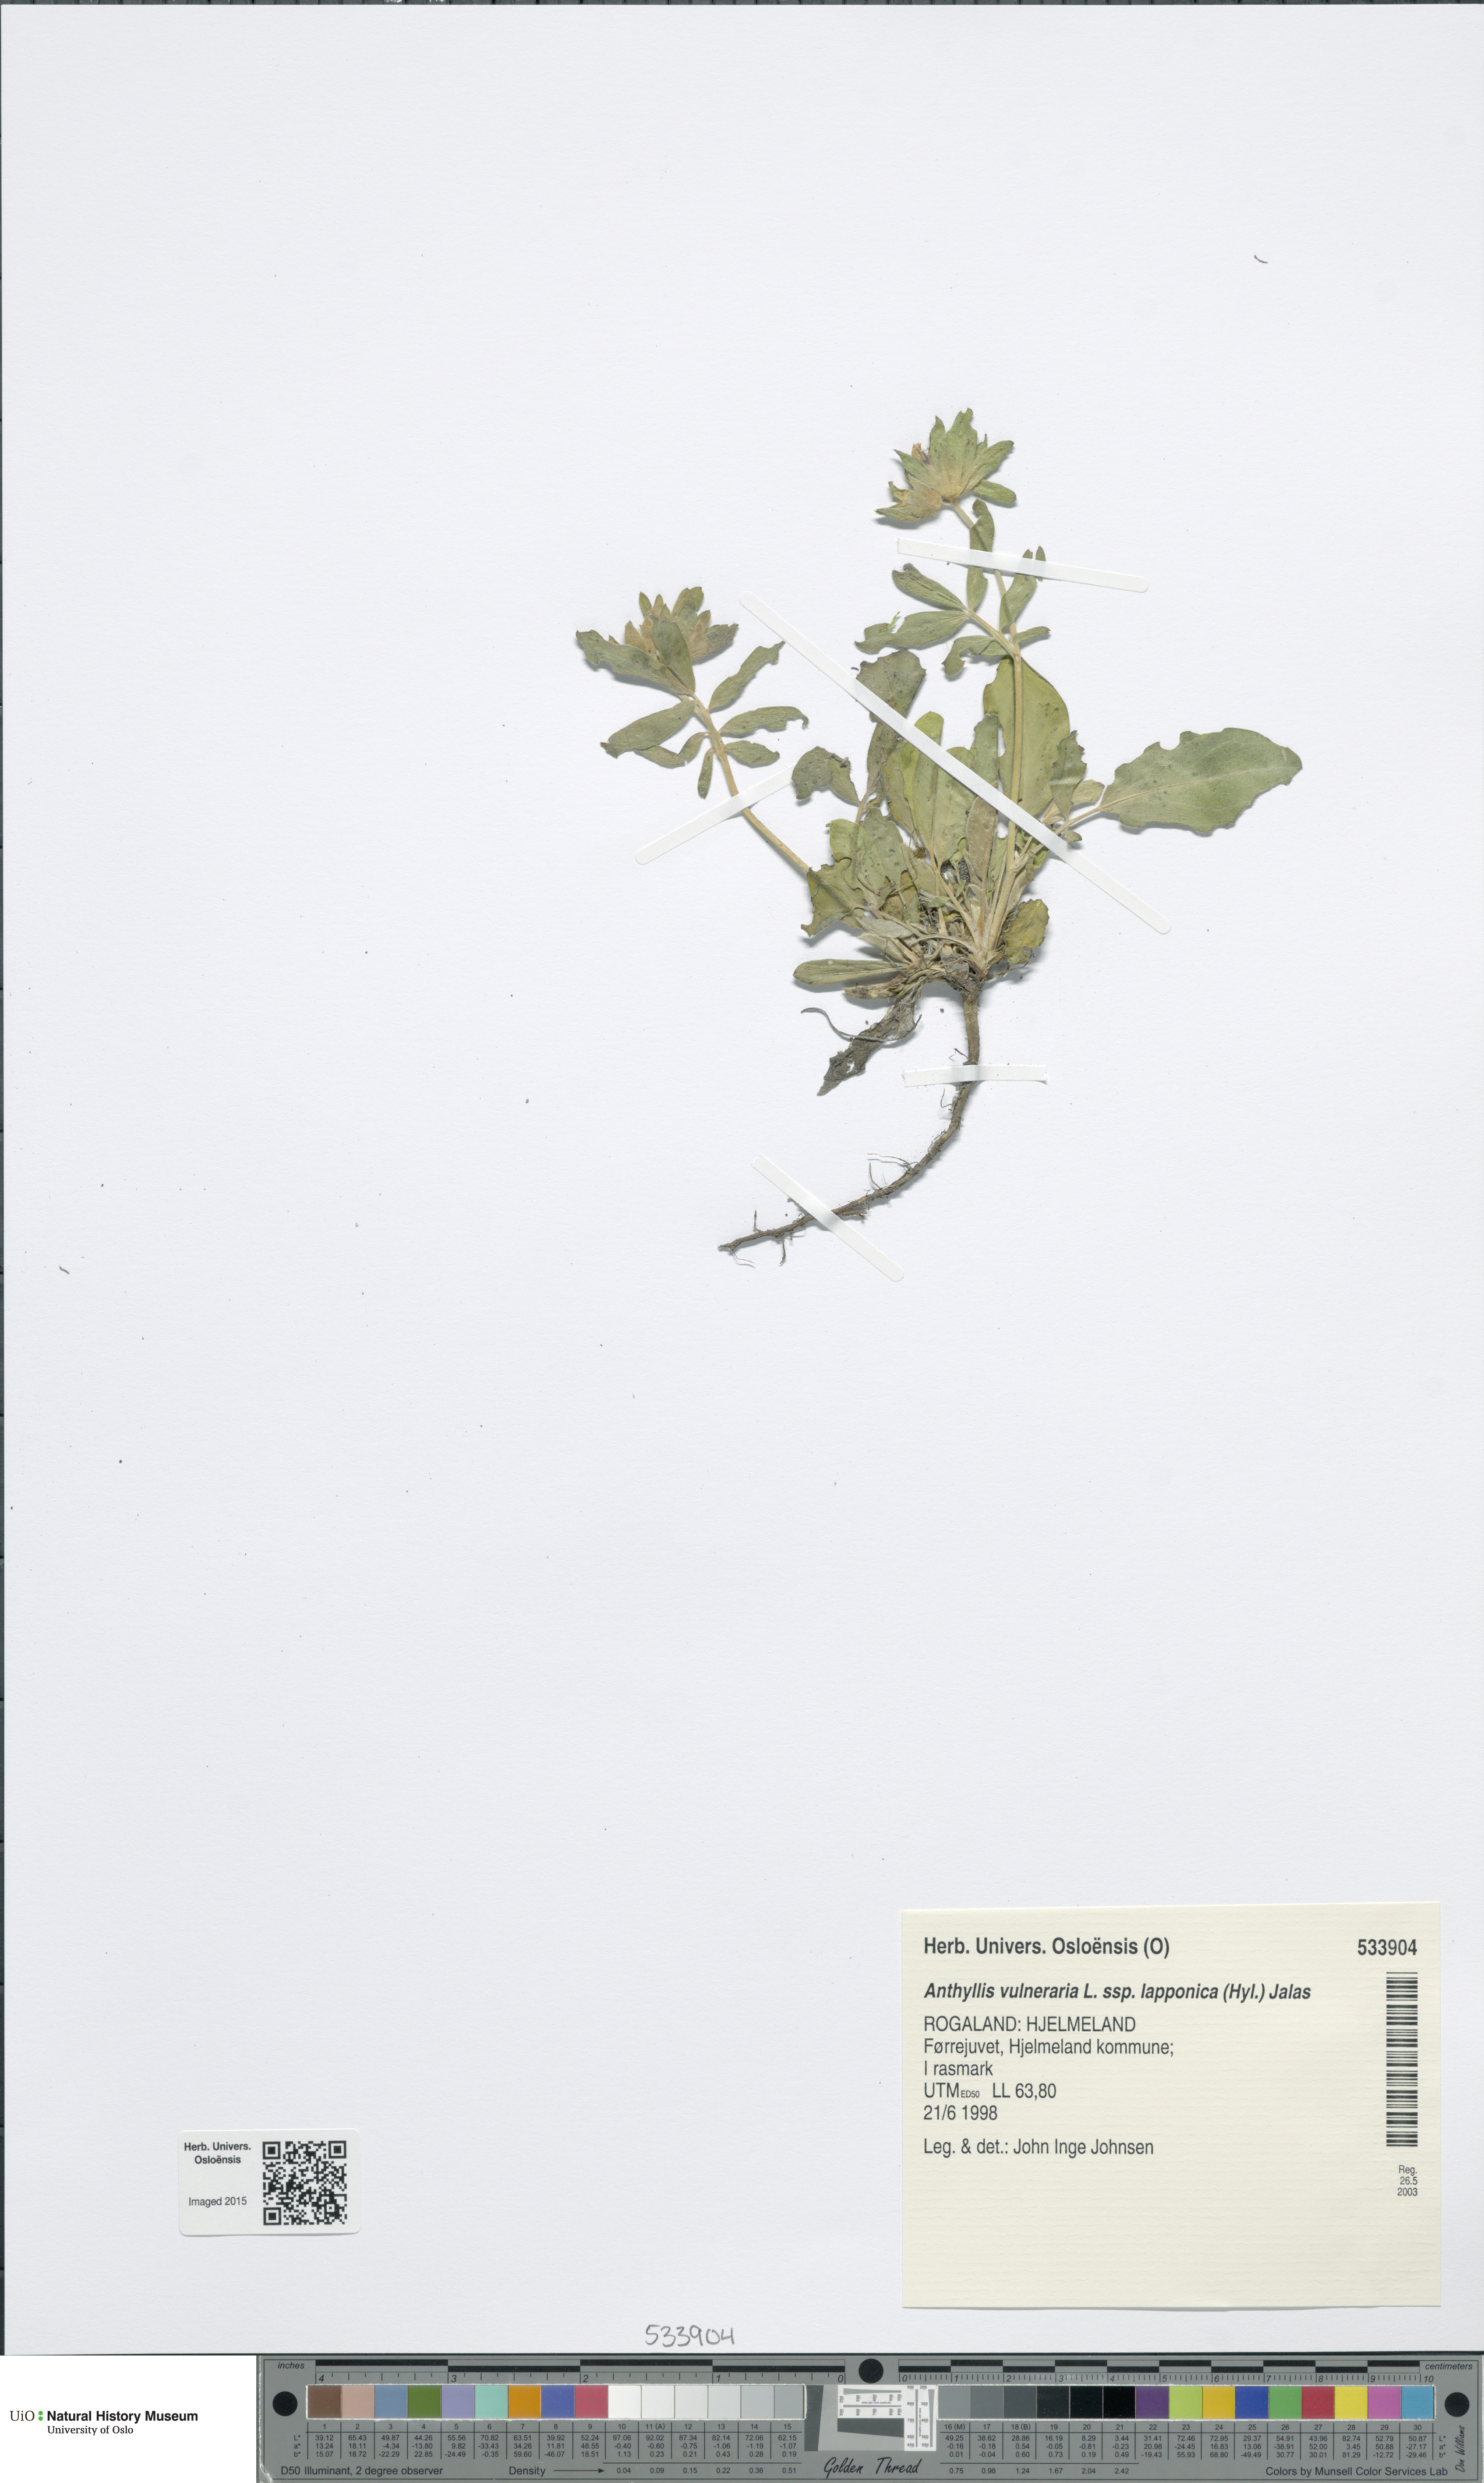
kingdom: Plantae
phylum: Tracheophyta
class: Magnoliopsida
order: Fabales
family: Fabaceae
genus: Anthyllis
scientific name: Anthyllis vulneraria
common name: Kidney vetch
